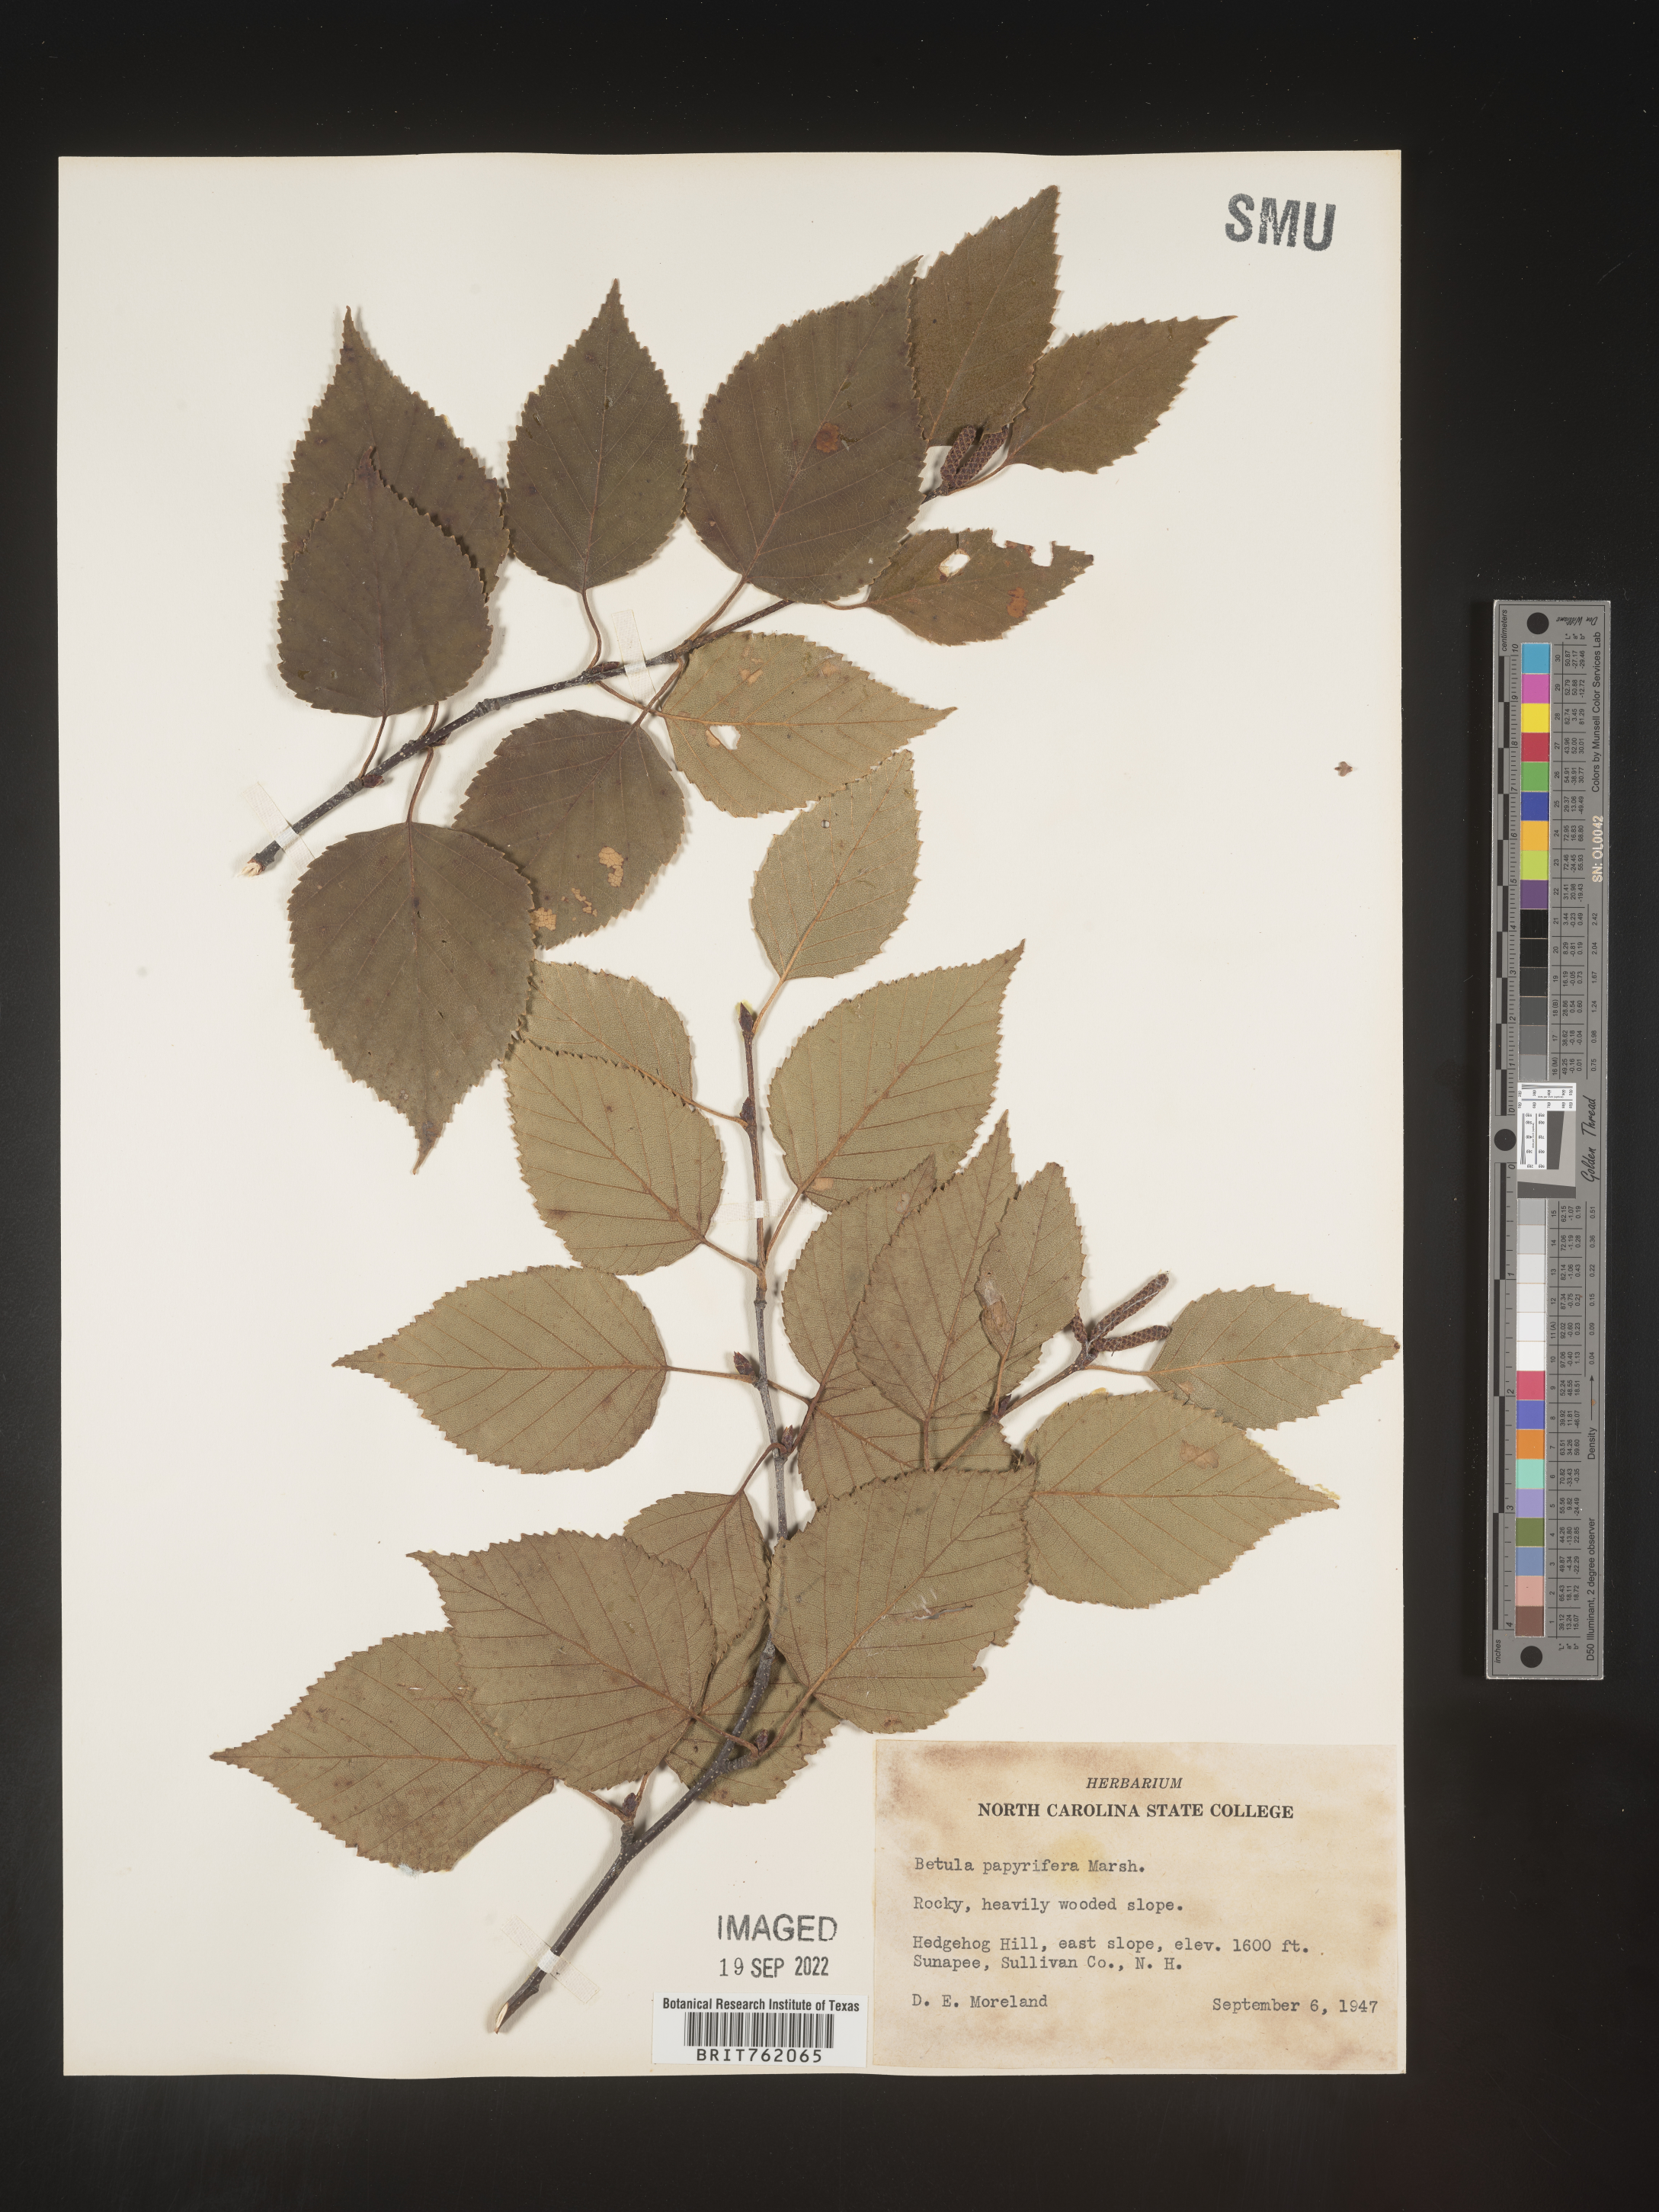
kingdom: Plantae
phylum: Tracheophyta
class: Magnoliopsida
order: Fagales
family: Betulaceae
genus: Betula
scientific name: Betula papyrifera
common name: Paper birch
